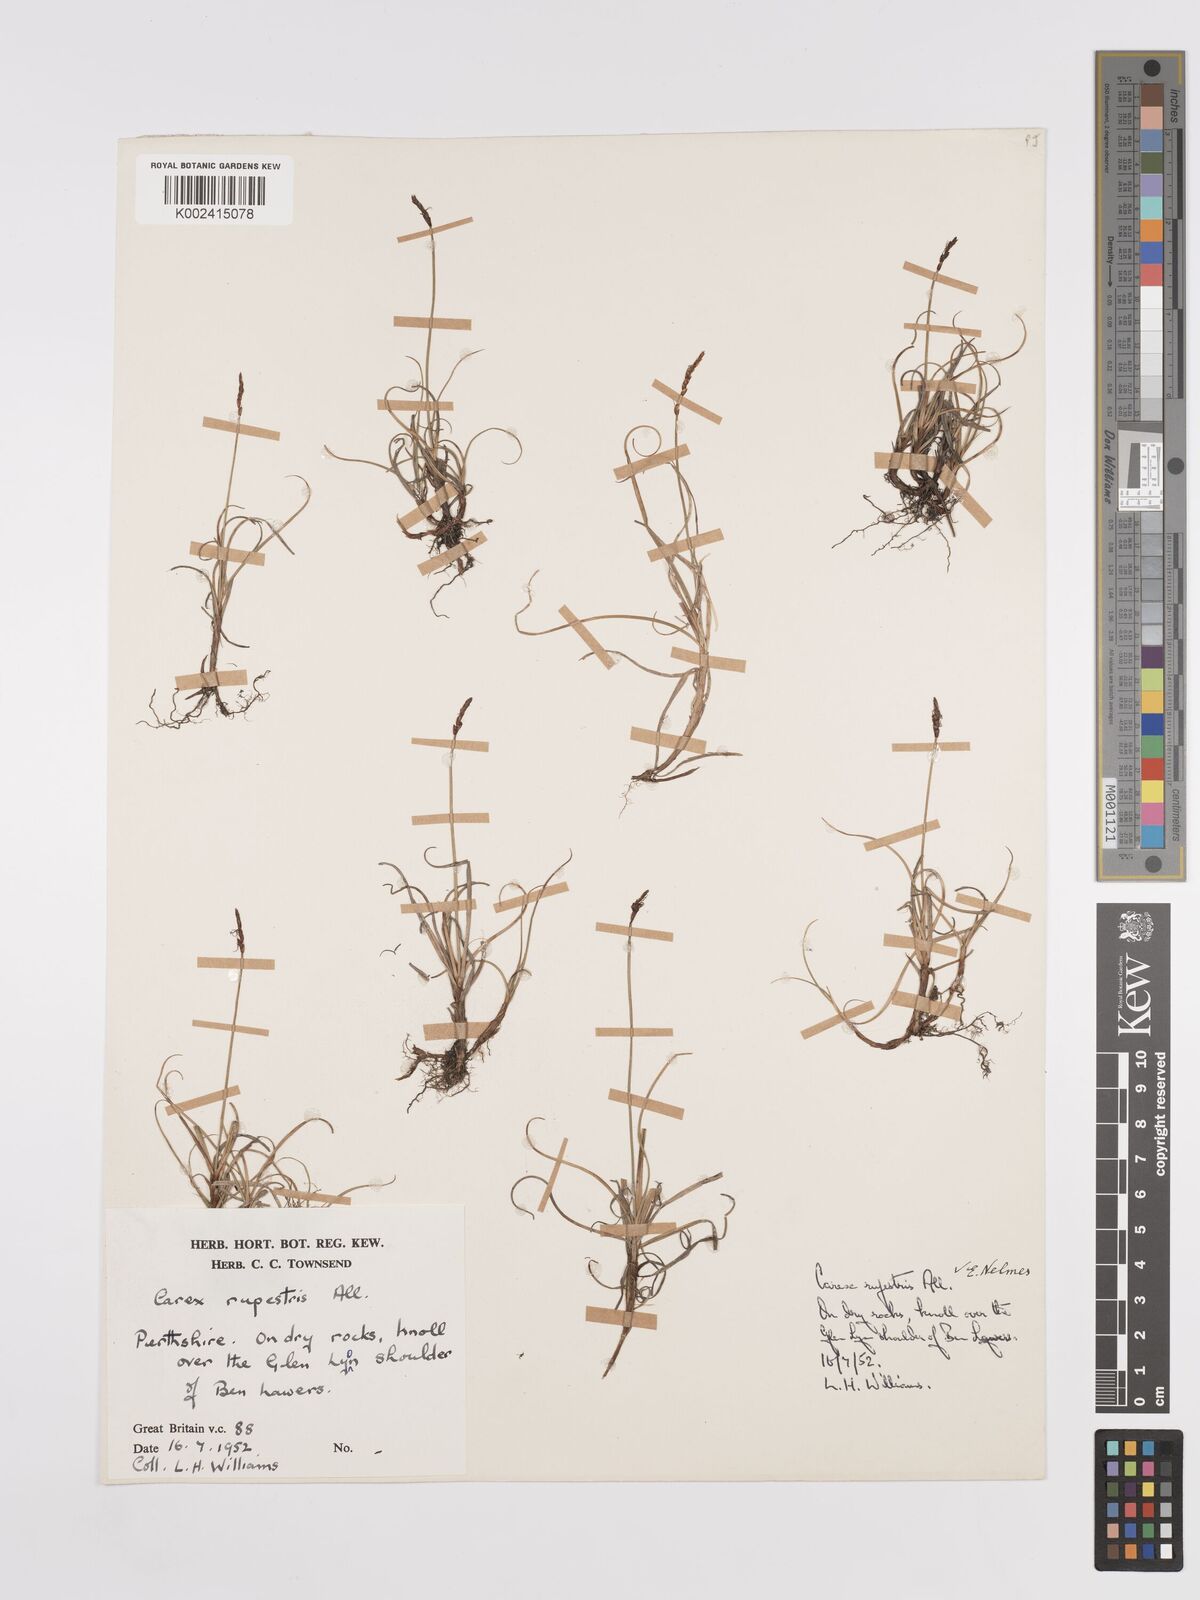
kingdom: Plantae
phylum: Tracheophyta
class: Liliopsida
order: Poales
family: Cyperaceae
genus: Carex
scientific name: Carex rupestris
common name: Rock sedge
